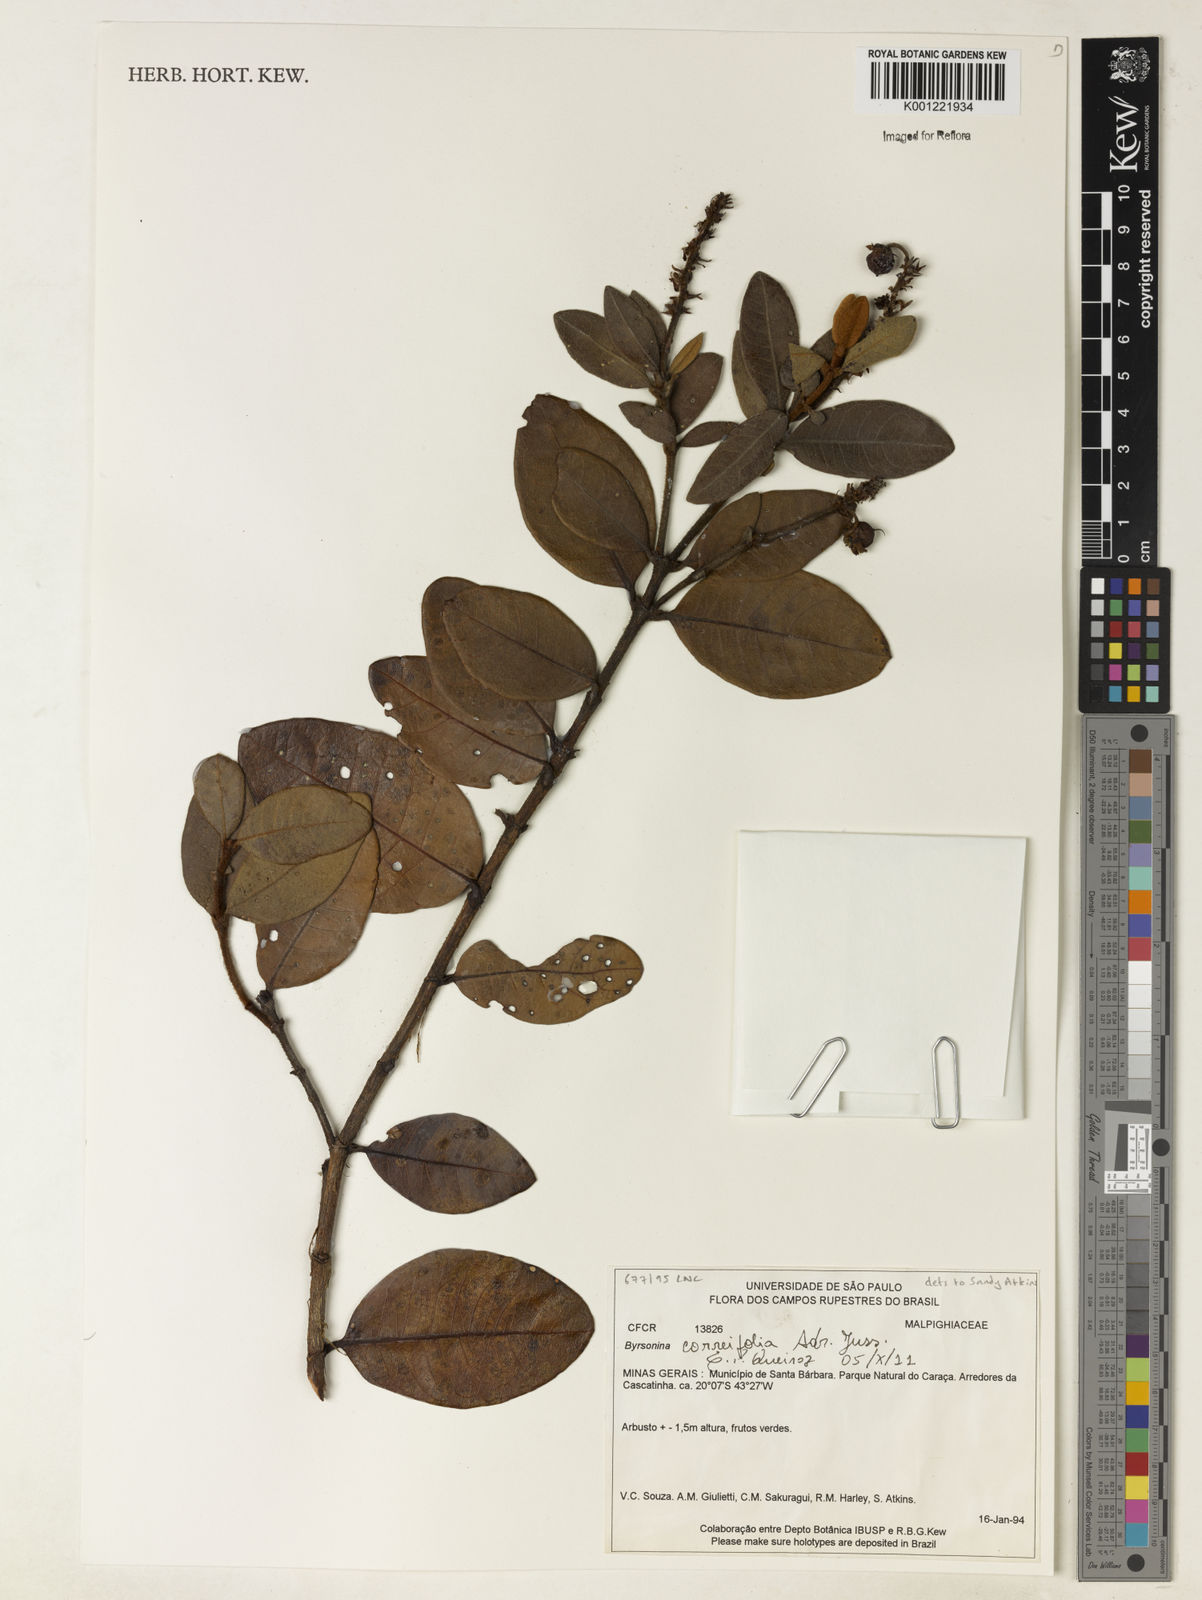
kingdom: Plantae
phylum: Tracheophyta
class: Magnoliopsida
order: Malpighiales
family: Malpighiaceae
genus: Byrsonima
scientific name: Byrsonima correifolia
